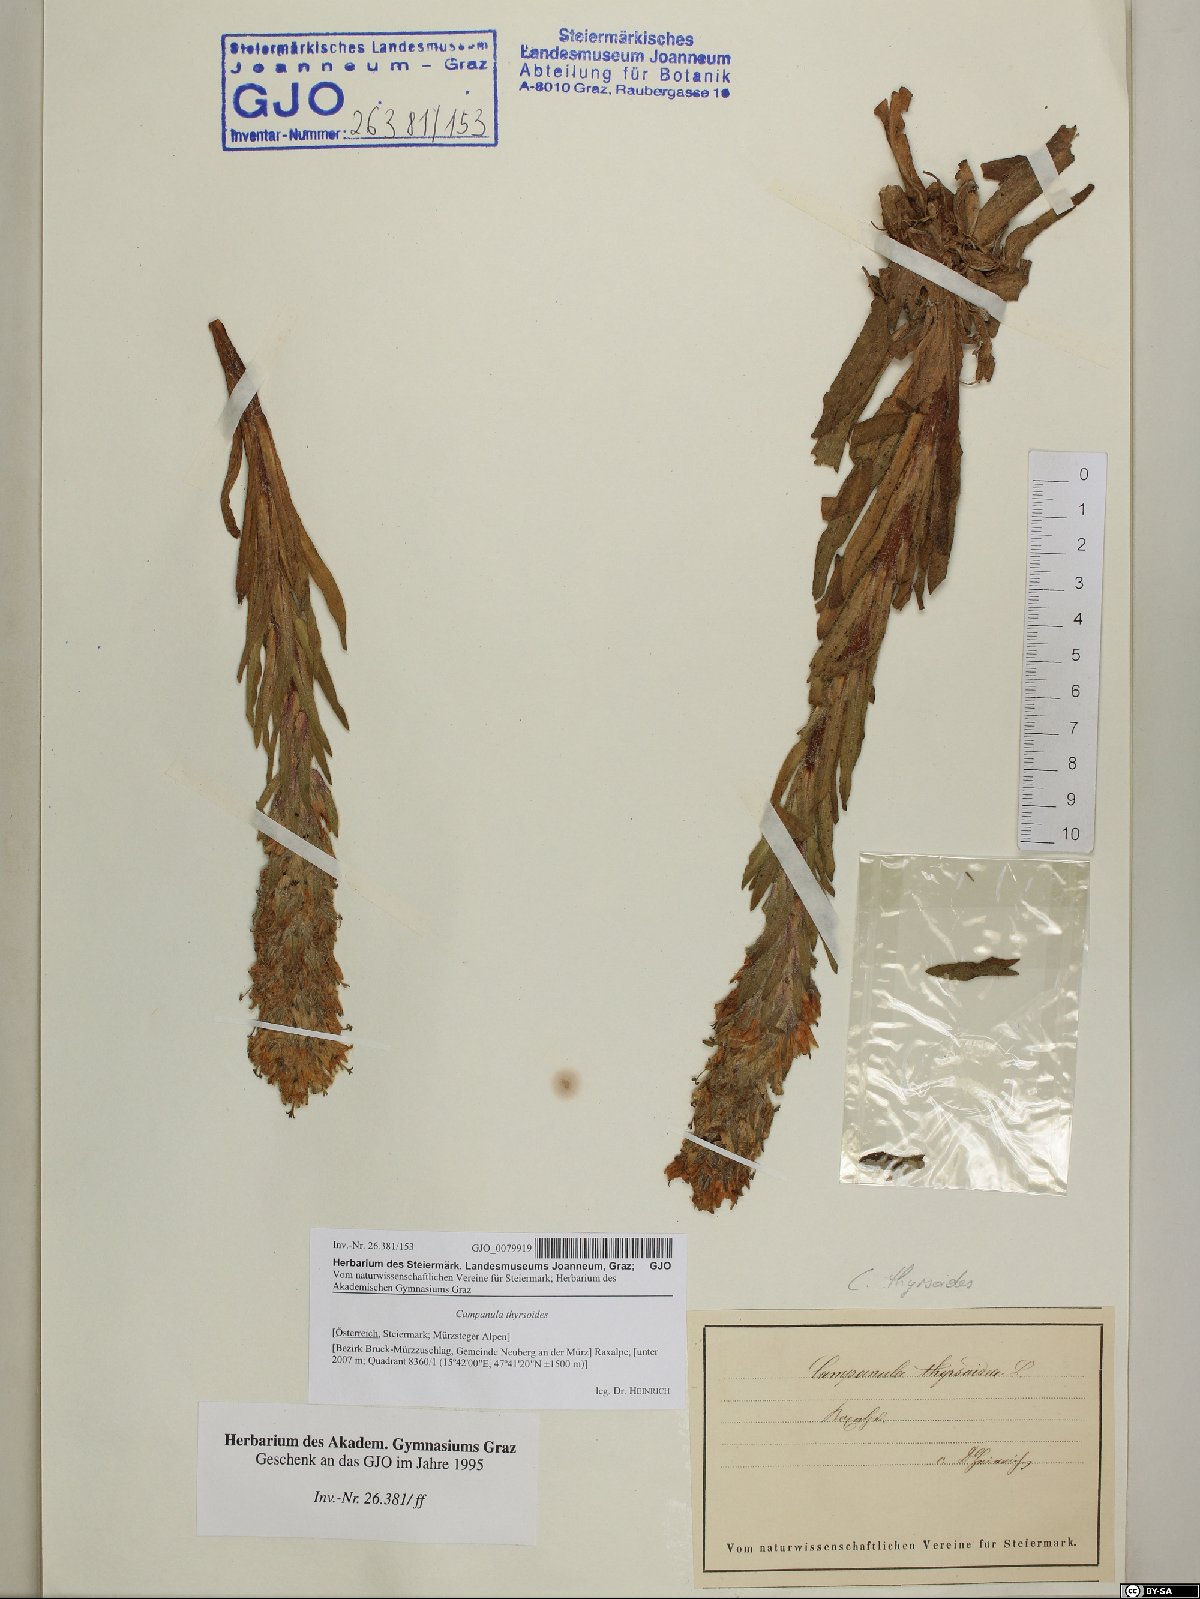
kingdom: Plantae
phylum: Tracheophyta
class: Magnoliopsida
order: Asterales
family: Campanulaceae
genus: Campanula
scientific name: Campanula thyrsoides
